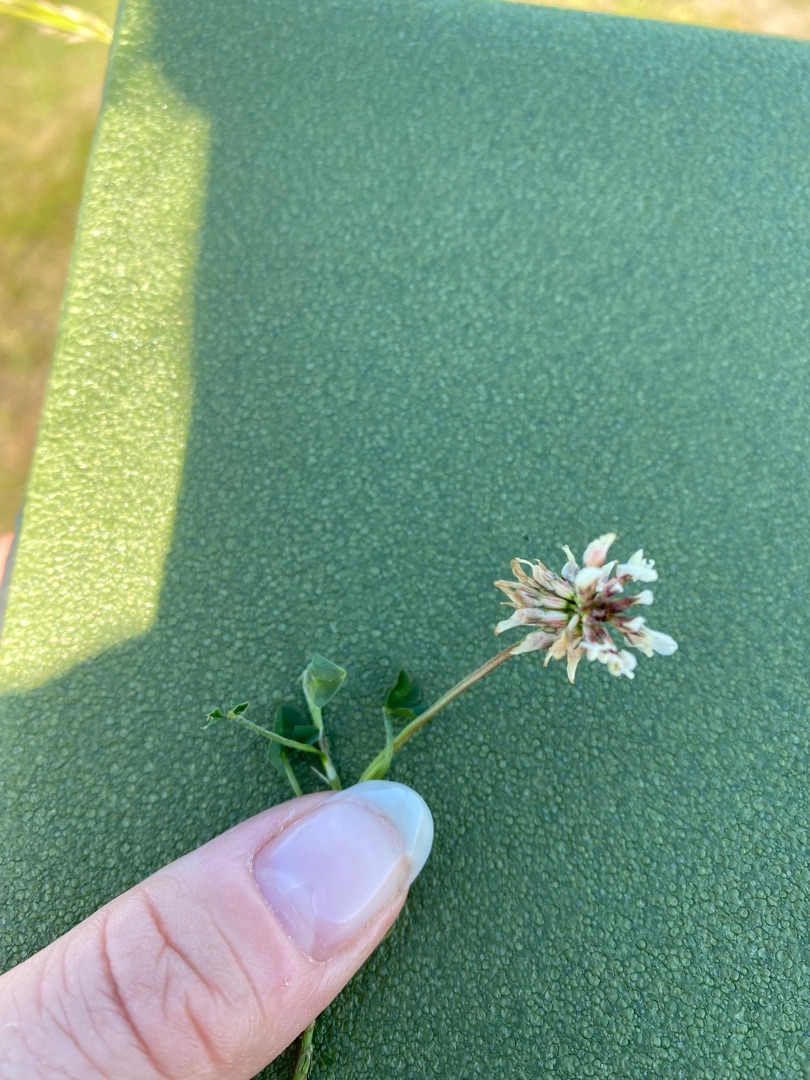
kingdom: Plantae
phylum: Tracheophyta
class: Magnoliopsida
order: Fabales
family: Fabaceae
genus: Trifolium
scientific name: Trifolium repens
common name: Hvid-kløver
